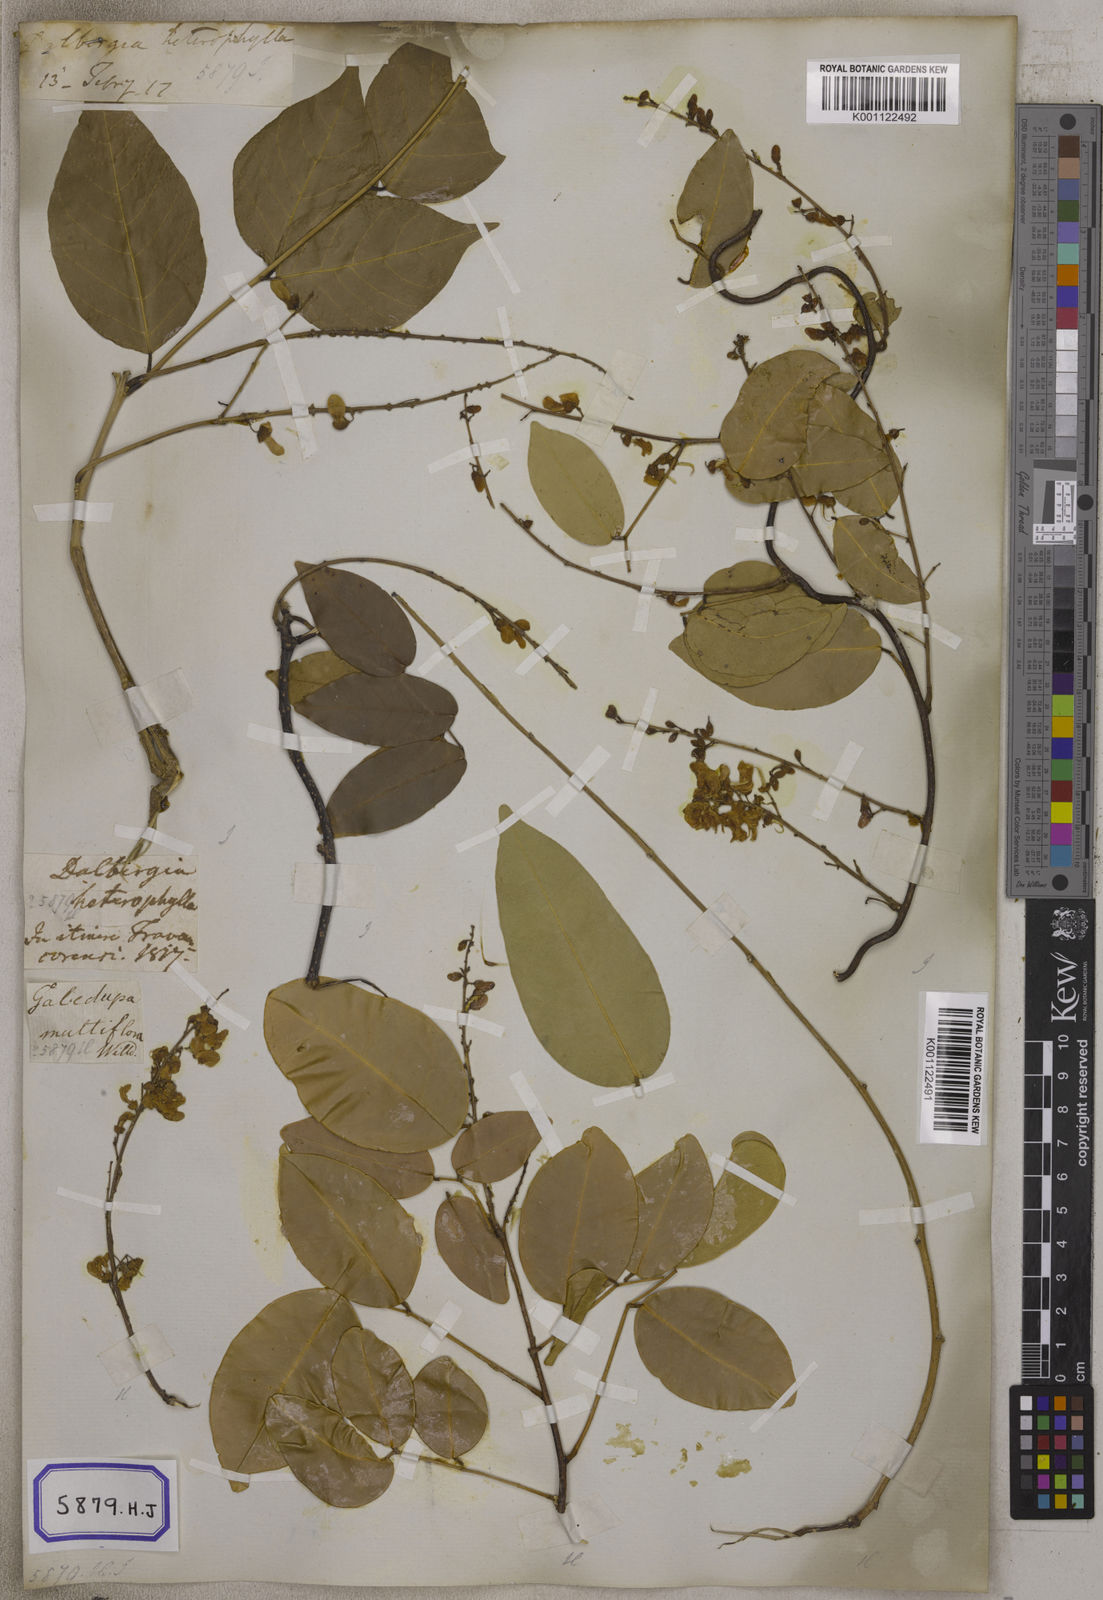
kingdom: Plantae
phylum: Tracheophyta
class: Magnoliopsida
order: Fabales
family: Fabaceae
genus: Derris
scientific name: Derris trifoliata
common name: Three-leaf derris
